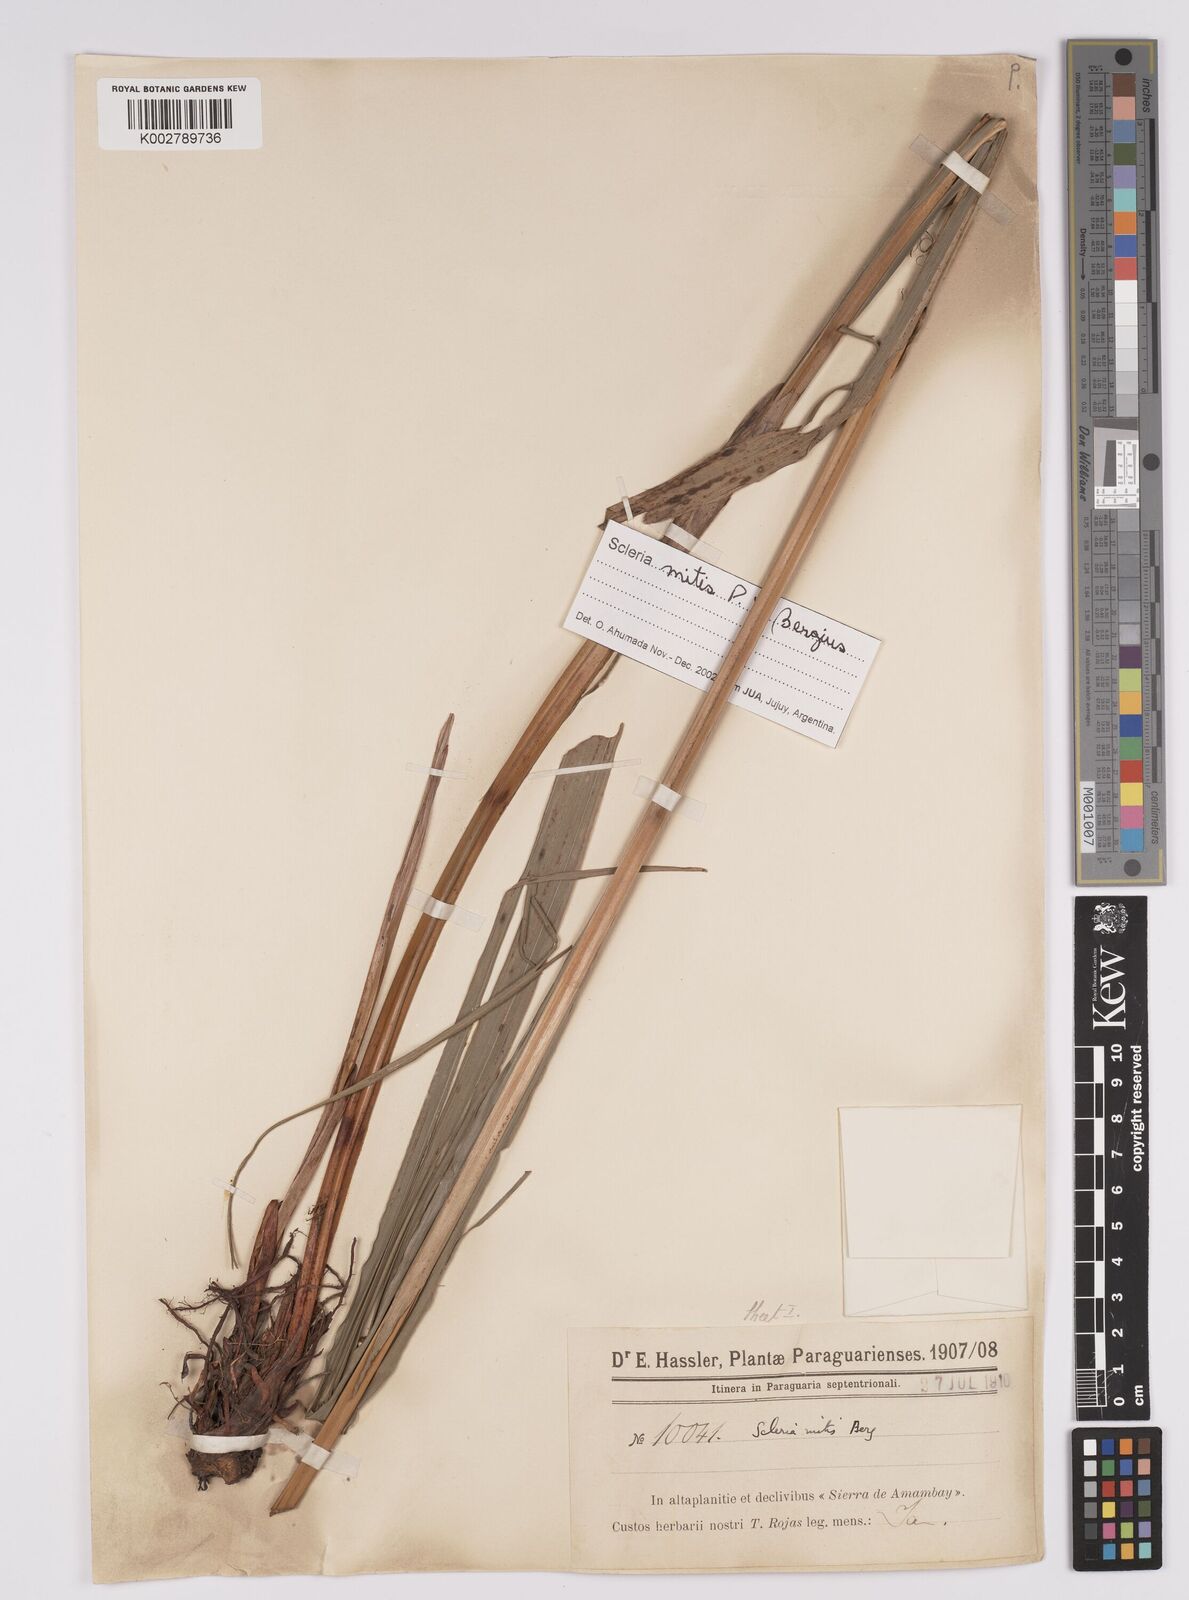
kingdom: Plantae
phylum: Tracheophyta
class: Liliopsida
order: Poales
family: Cyperaceae
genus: Scleria
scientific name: Scleria mitis
